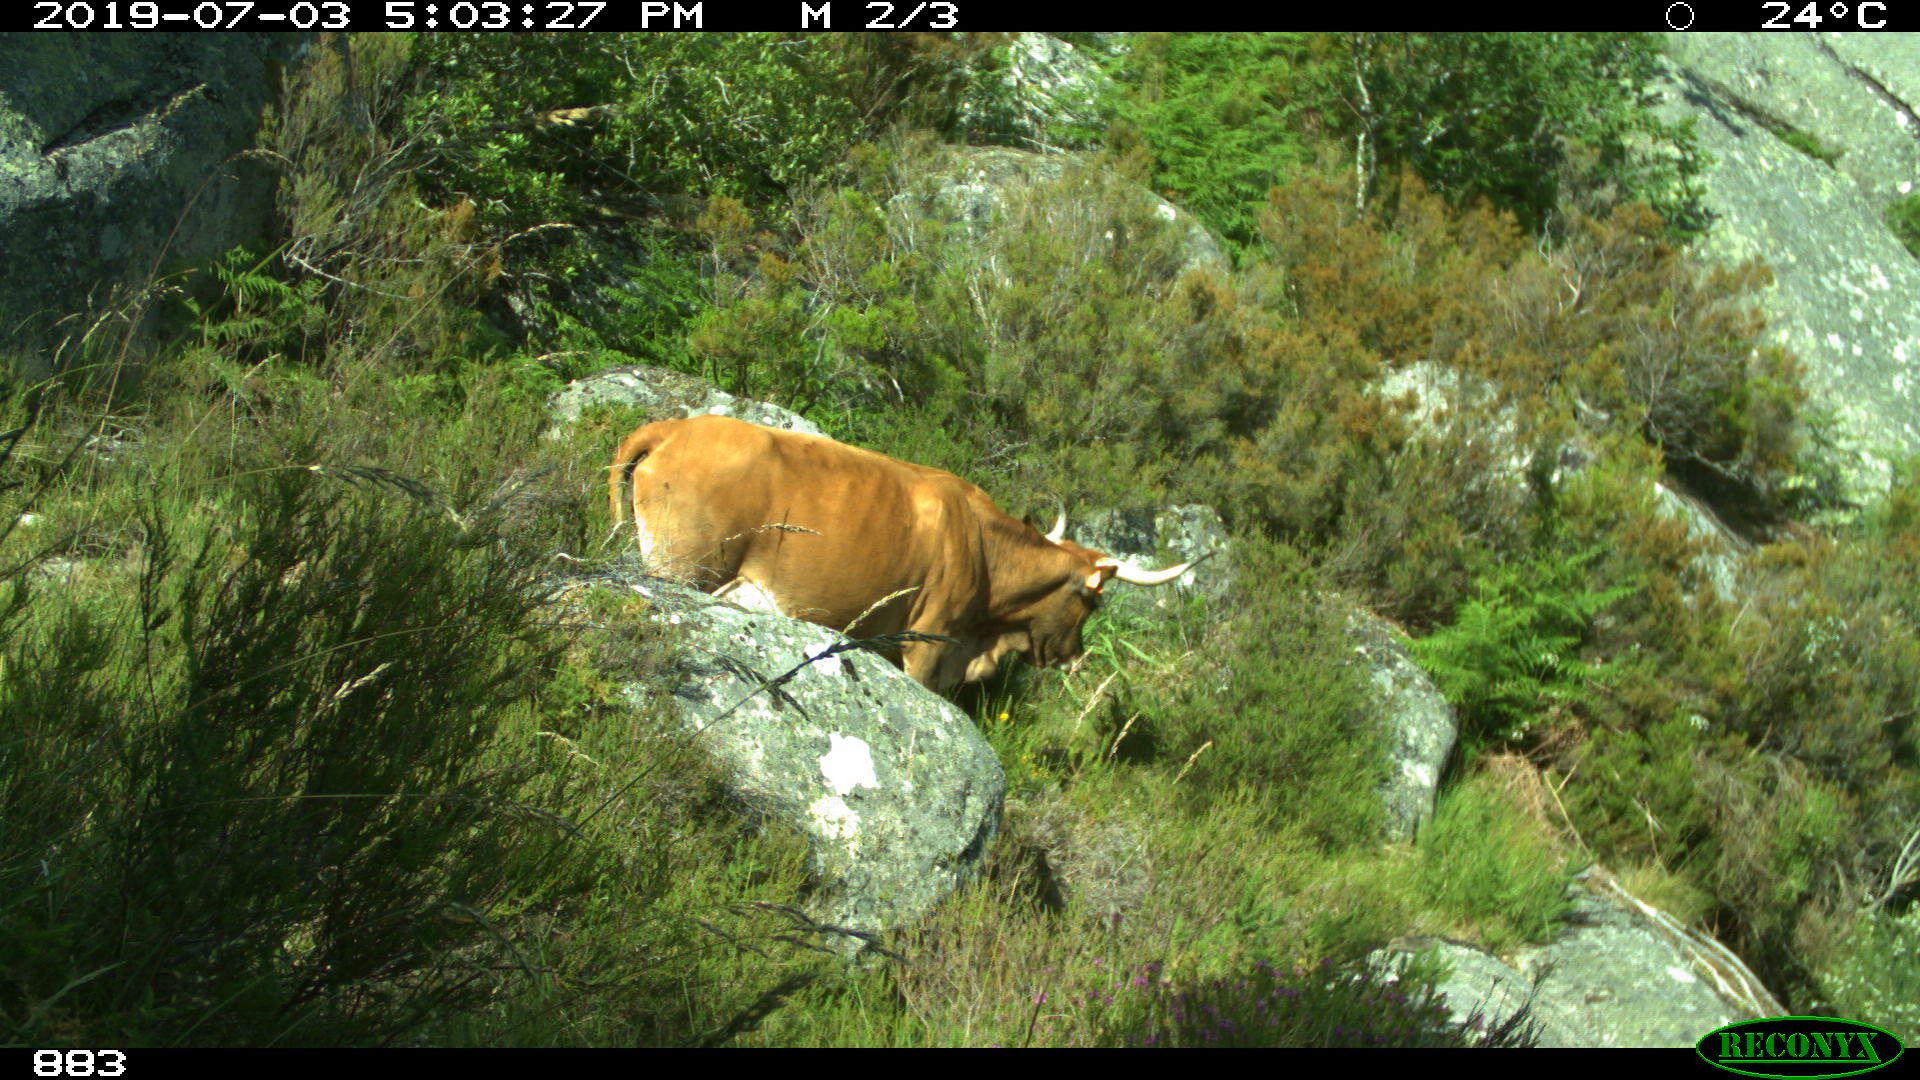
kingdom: Animalia
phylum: Chordata
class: Mammalia
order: Artiodactyla
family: Bovidae
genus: Bos
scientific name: Bos taurus
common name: Domesticated cattle
